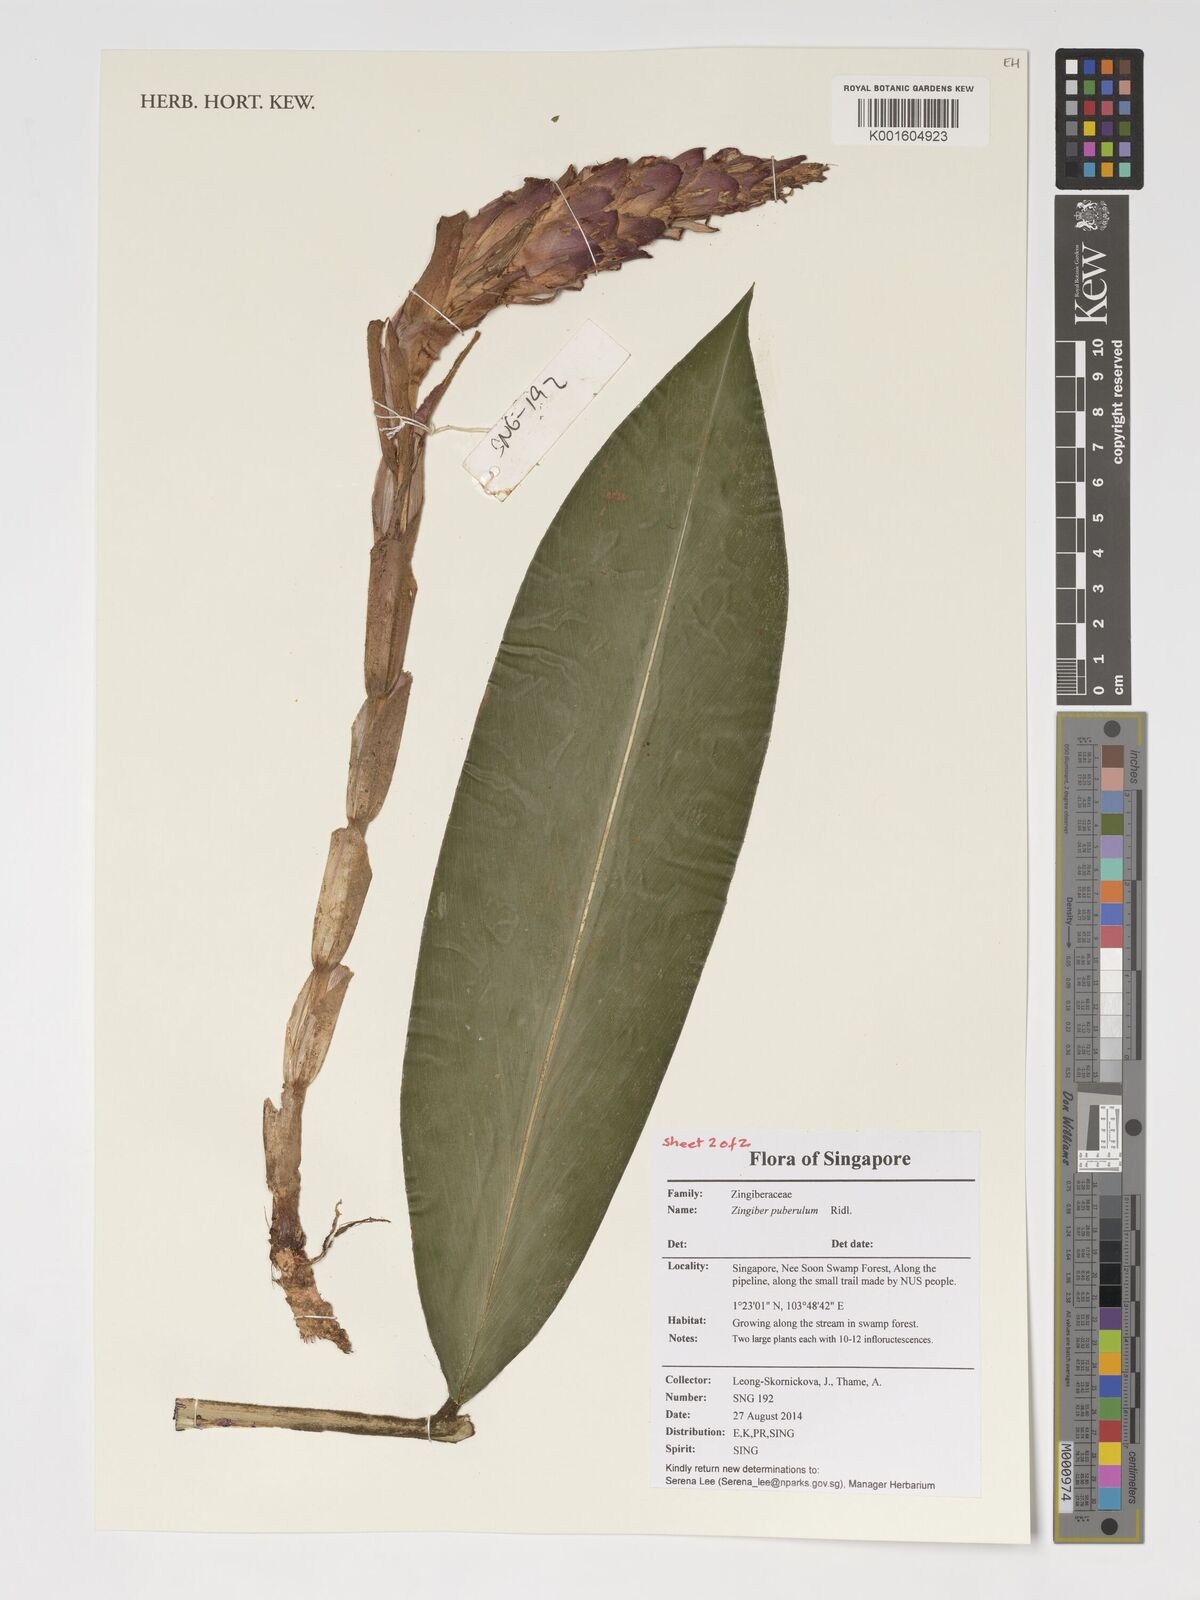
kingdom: Plantae
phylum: Tracheophyta
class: Liliopsida
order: Zingiberales
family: Zingiberaceae
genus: Zingiber
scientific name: Zingiber puberulum
